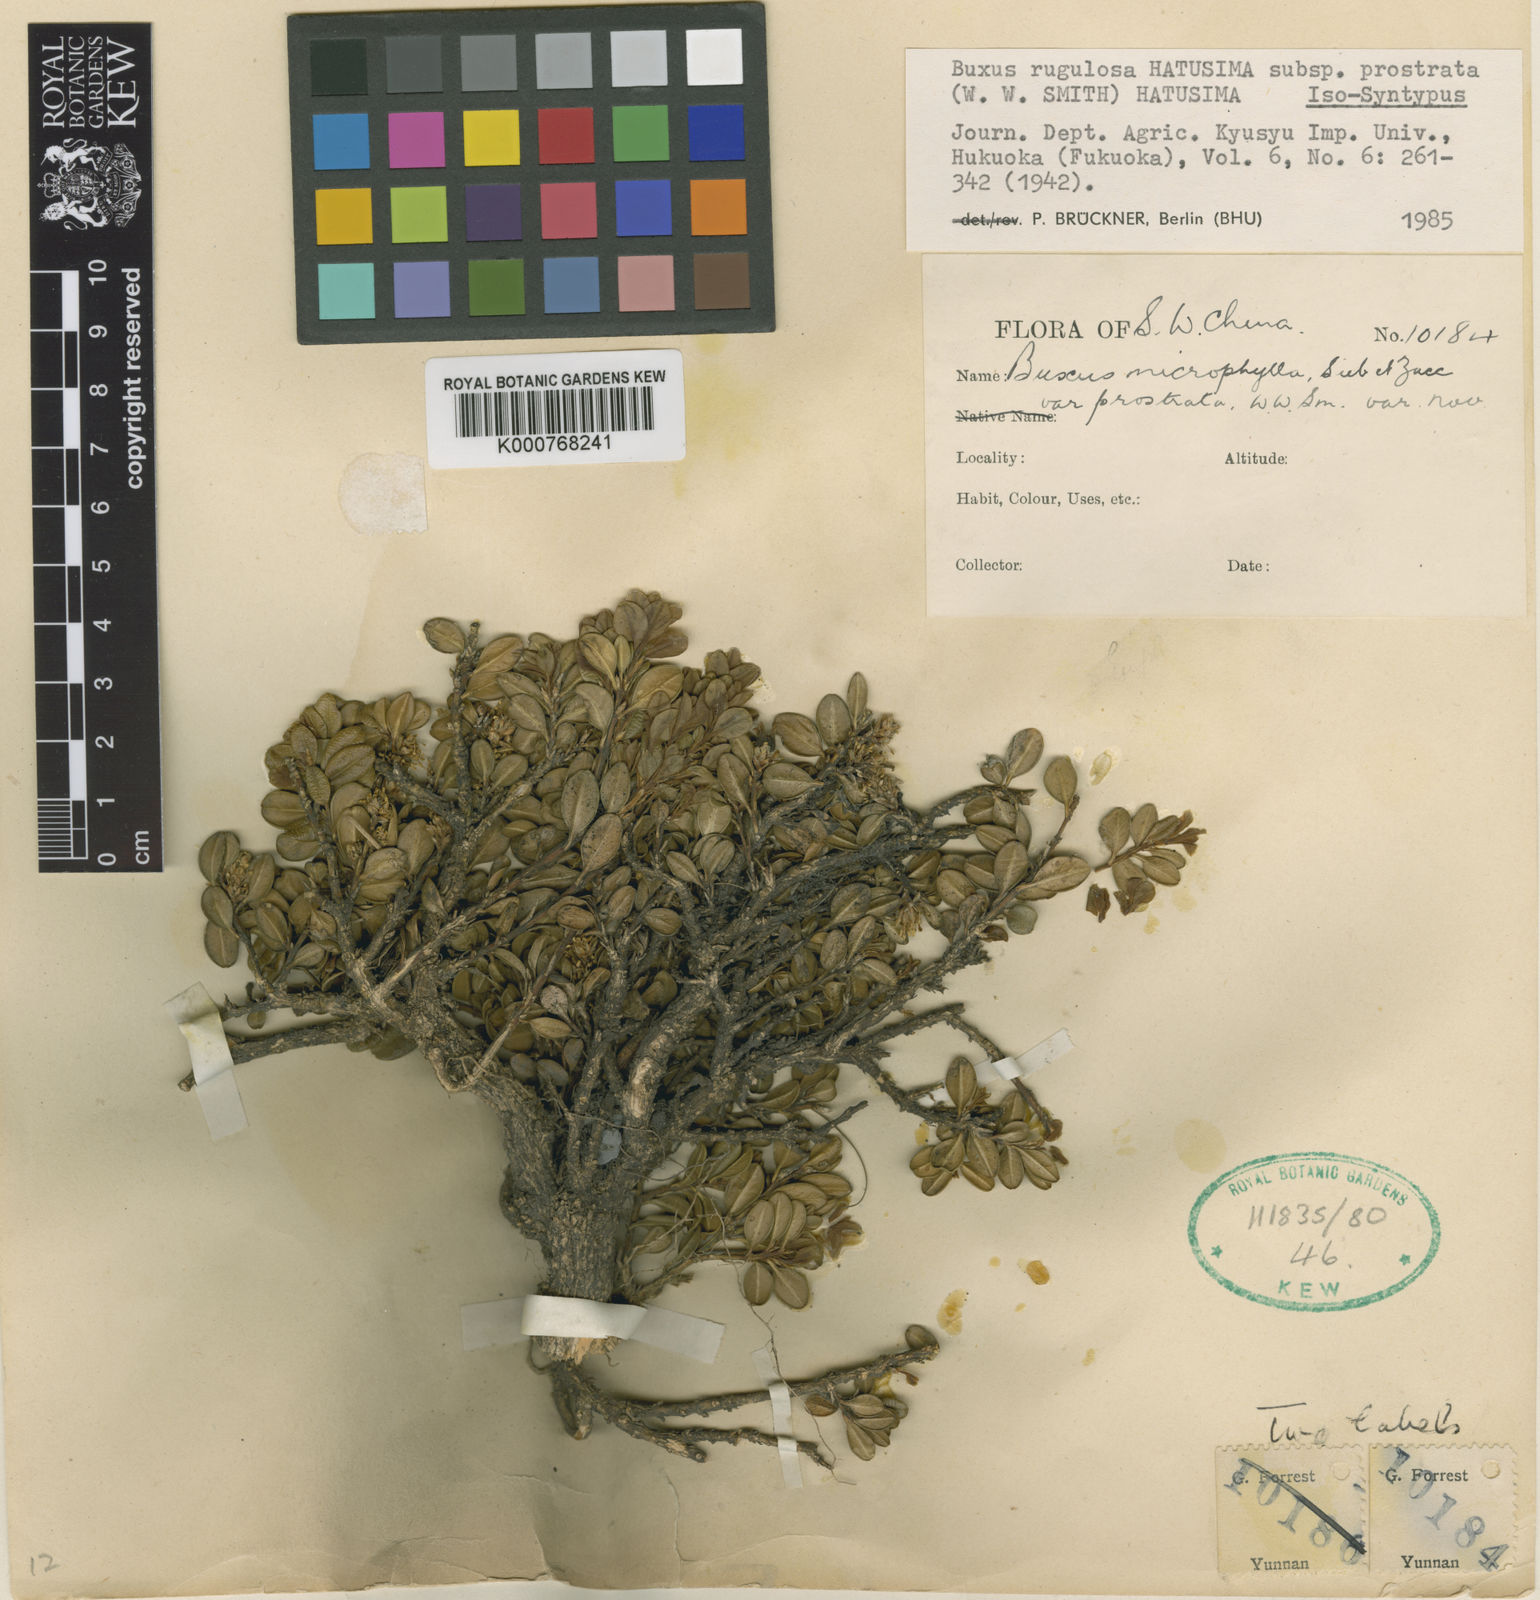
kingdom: Plantae
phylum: Tracheophyta
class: Magnoliopsida
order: Buxales
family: Buxaceae
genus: Buxus
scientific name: Buxus rugulosa
